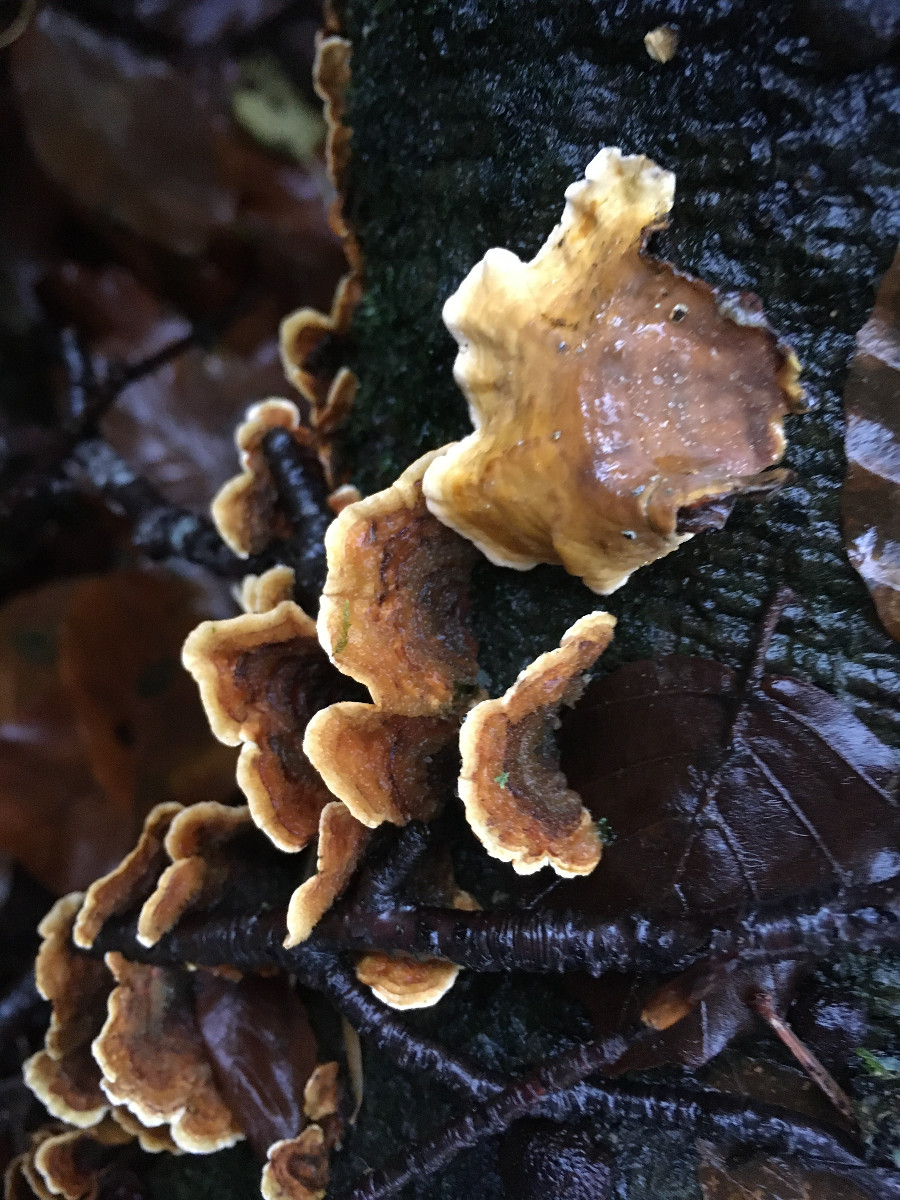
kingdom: Fungi
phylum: Basidiomycota
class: Agaricomycetes
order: Russulales
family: Stereaceae
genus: Stereum
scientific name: Stereum subtomentosum
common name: smuk lædersvamp
